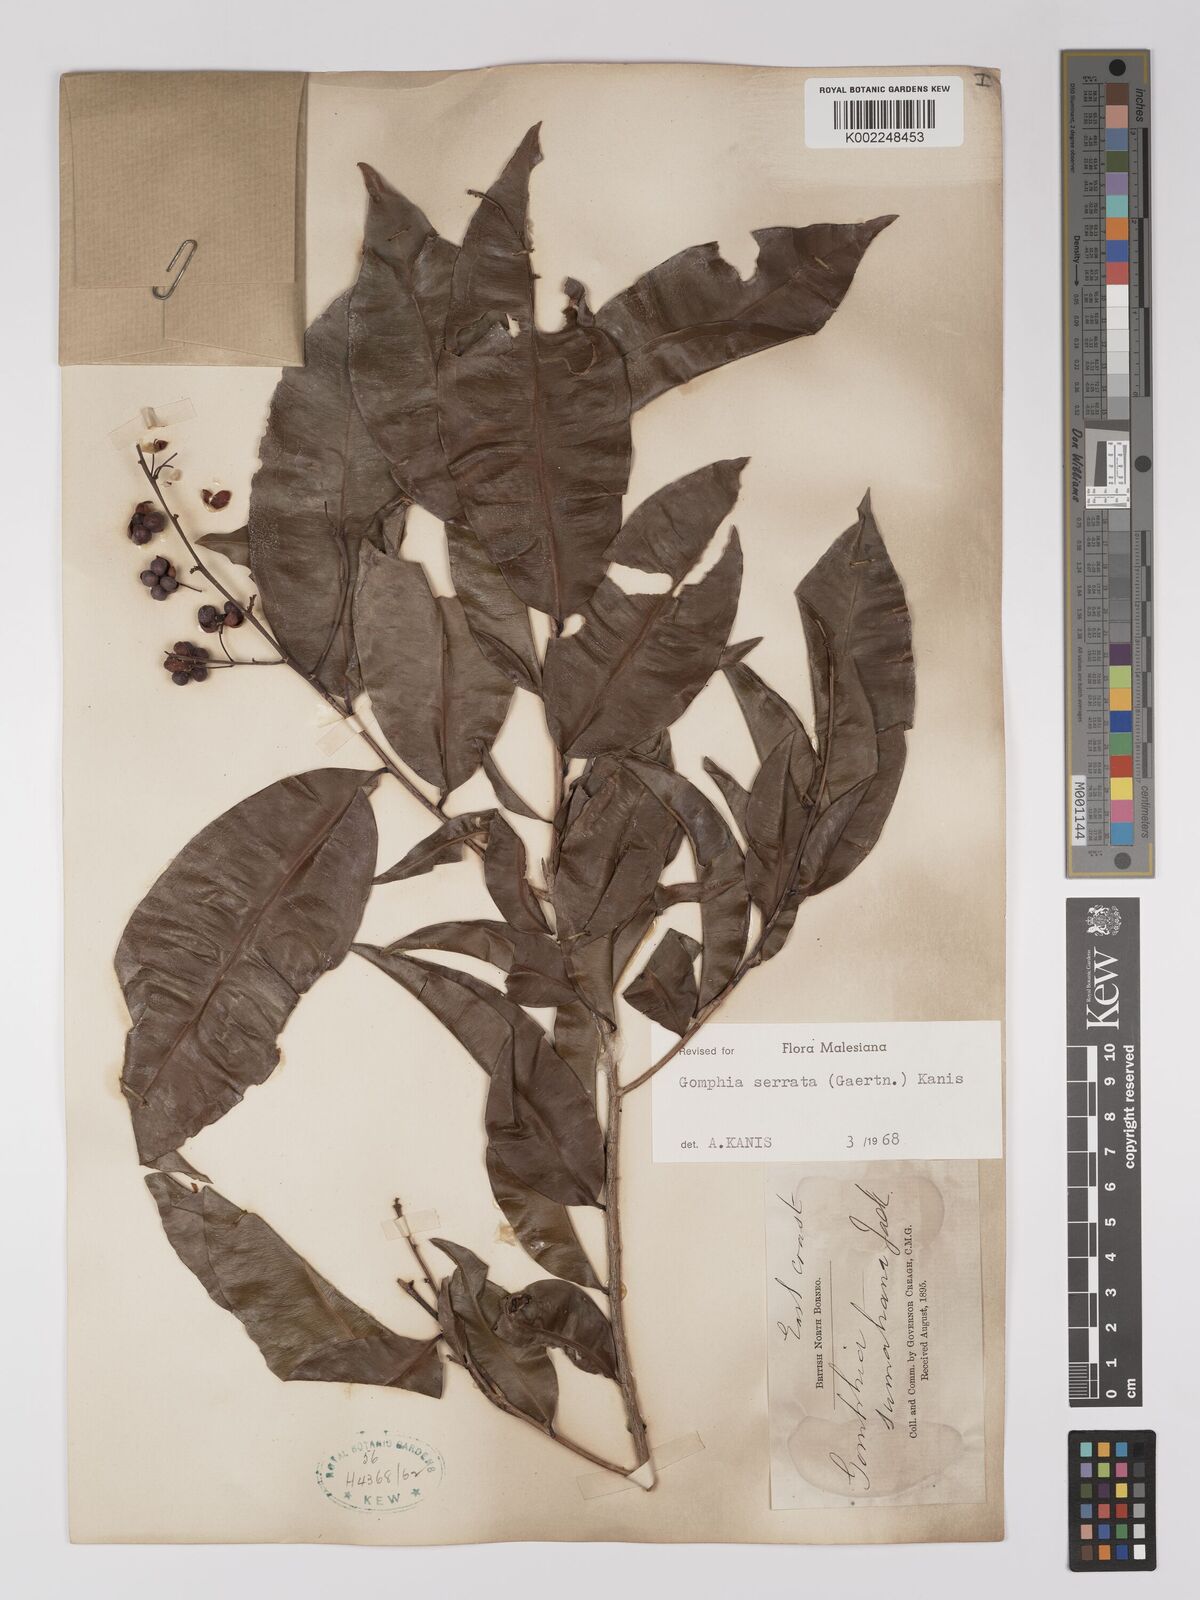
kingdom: Plantae
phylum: Tracheophyta
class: Magnoliopsida
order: Malpighiales
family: Ochnaceae
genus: Gomphia
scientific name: Gomphia serrata
